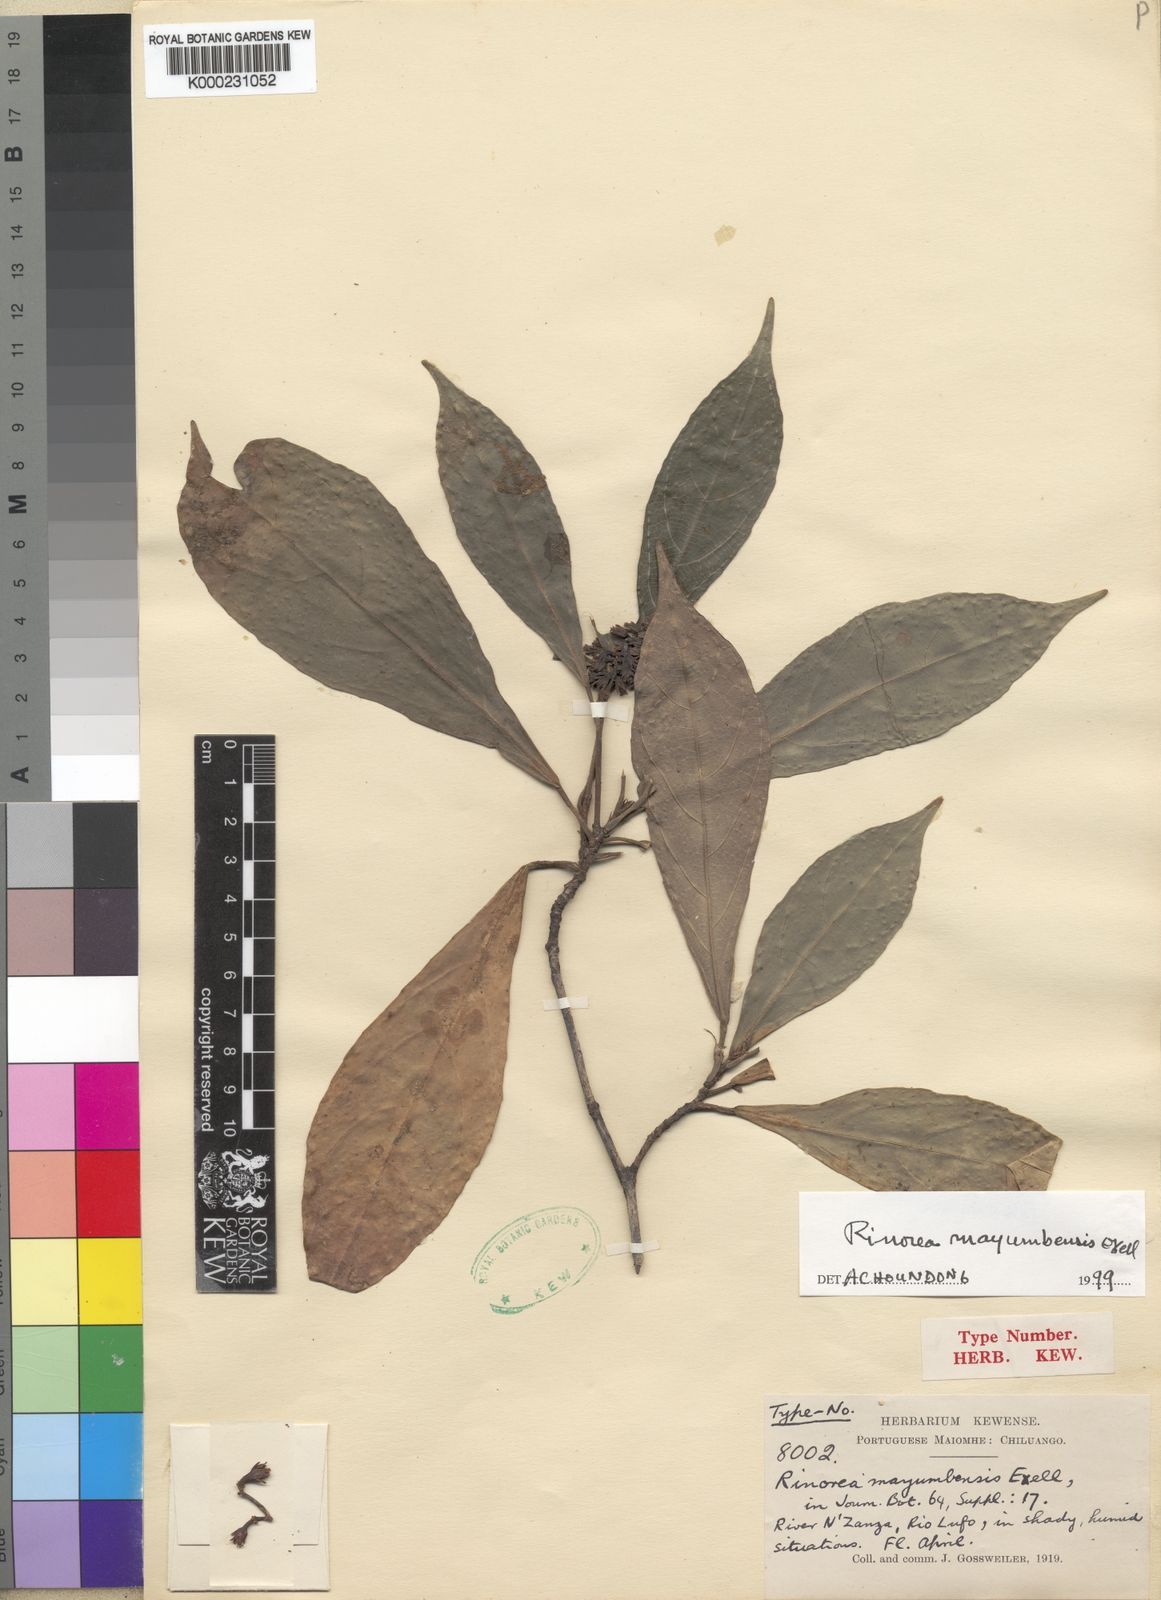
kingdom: Plantae
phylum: Tracheophyta
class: Magnoliopsida
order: Malpighiales
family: Violaceae
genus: Rinorea
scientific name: Rinorea mayumbensis
